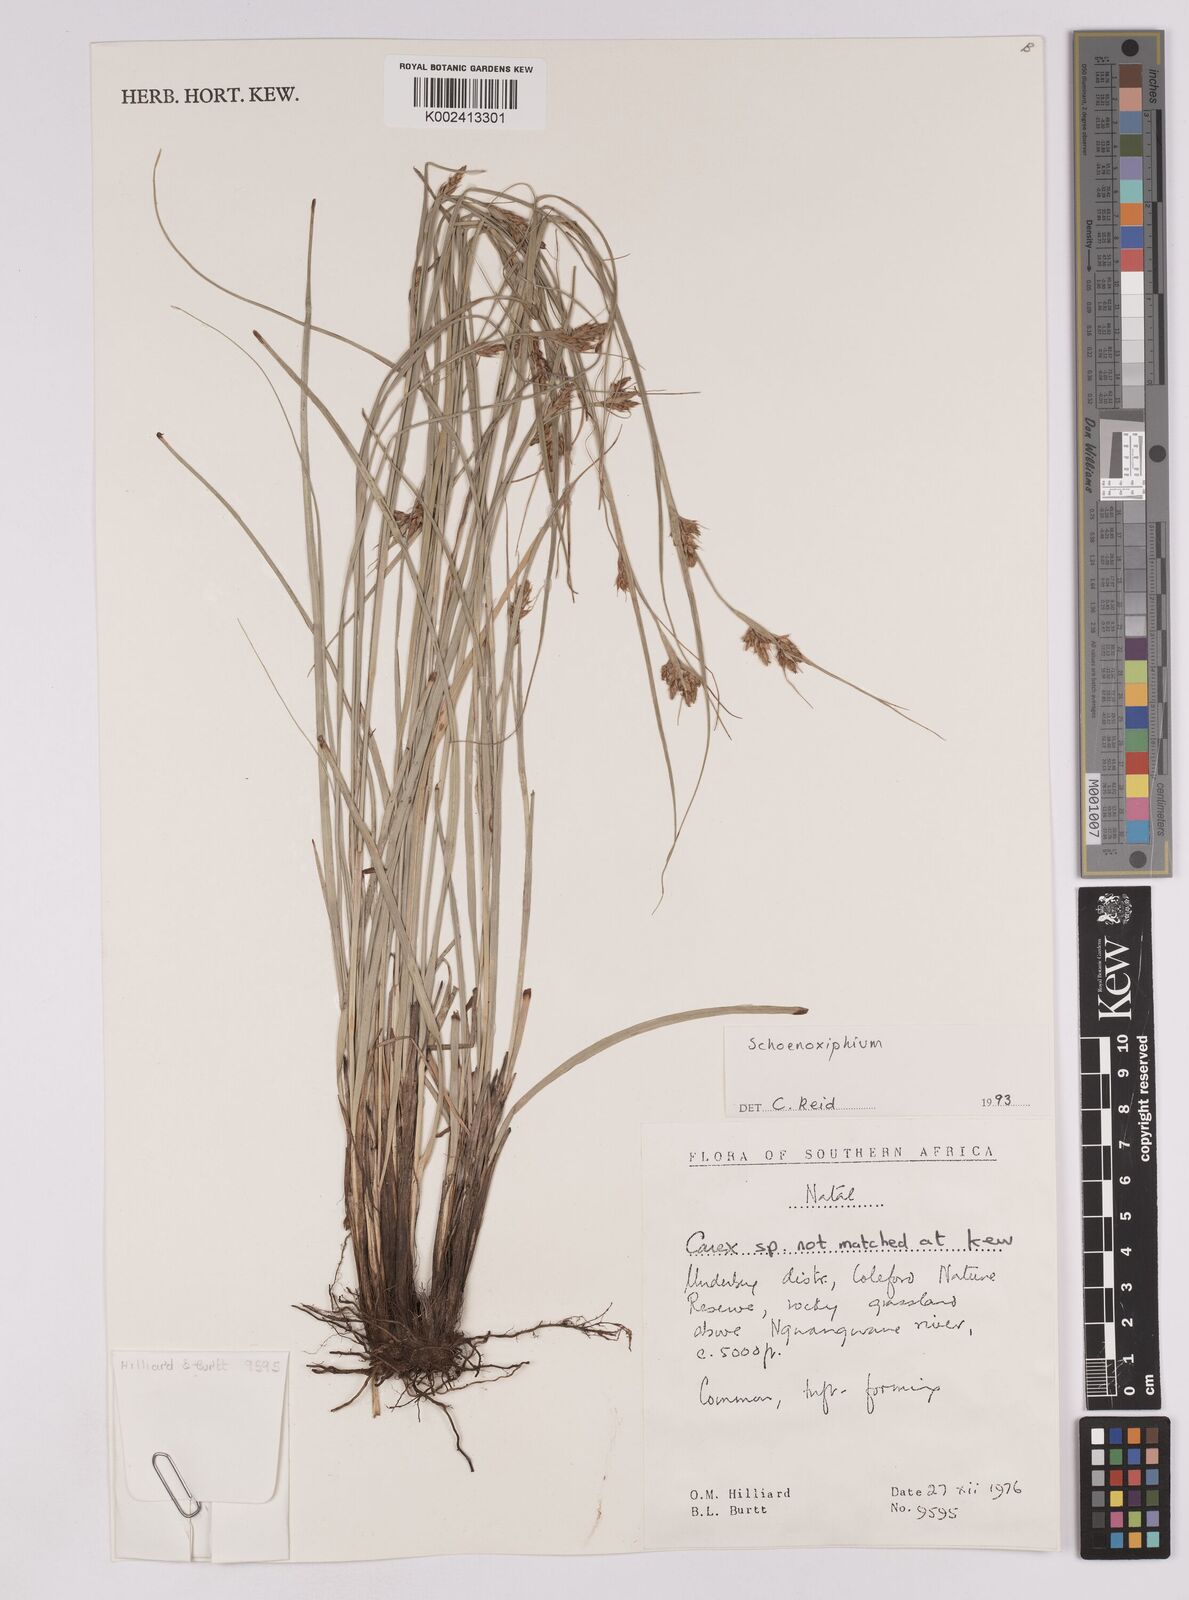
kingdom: Plantae
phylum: Tracheophyta
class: Liliopsida
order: Poales
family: Cyperaceae
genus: Carex
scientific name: Carex
